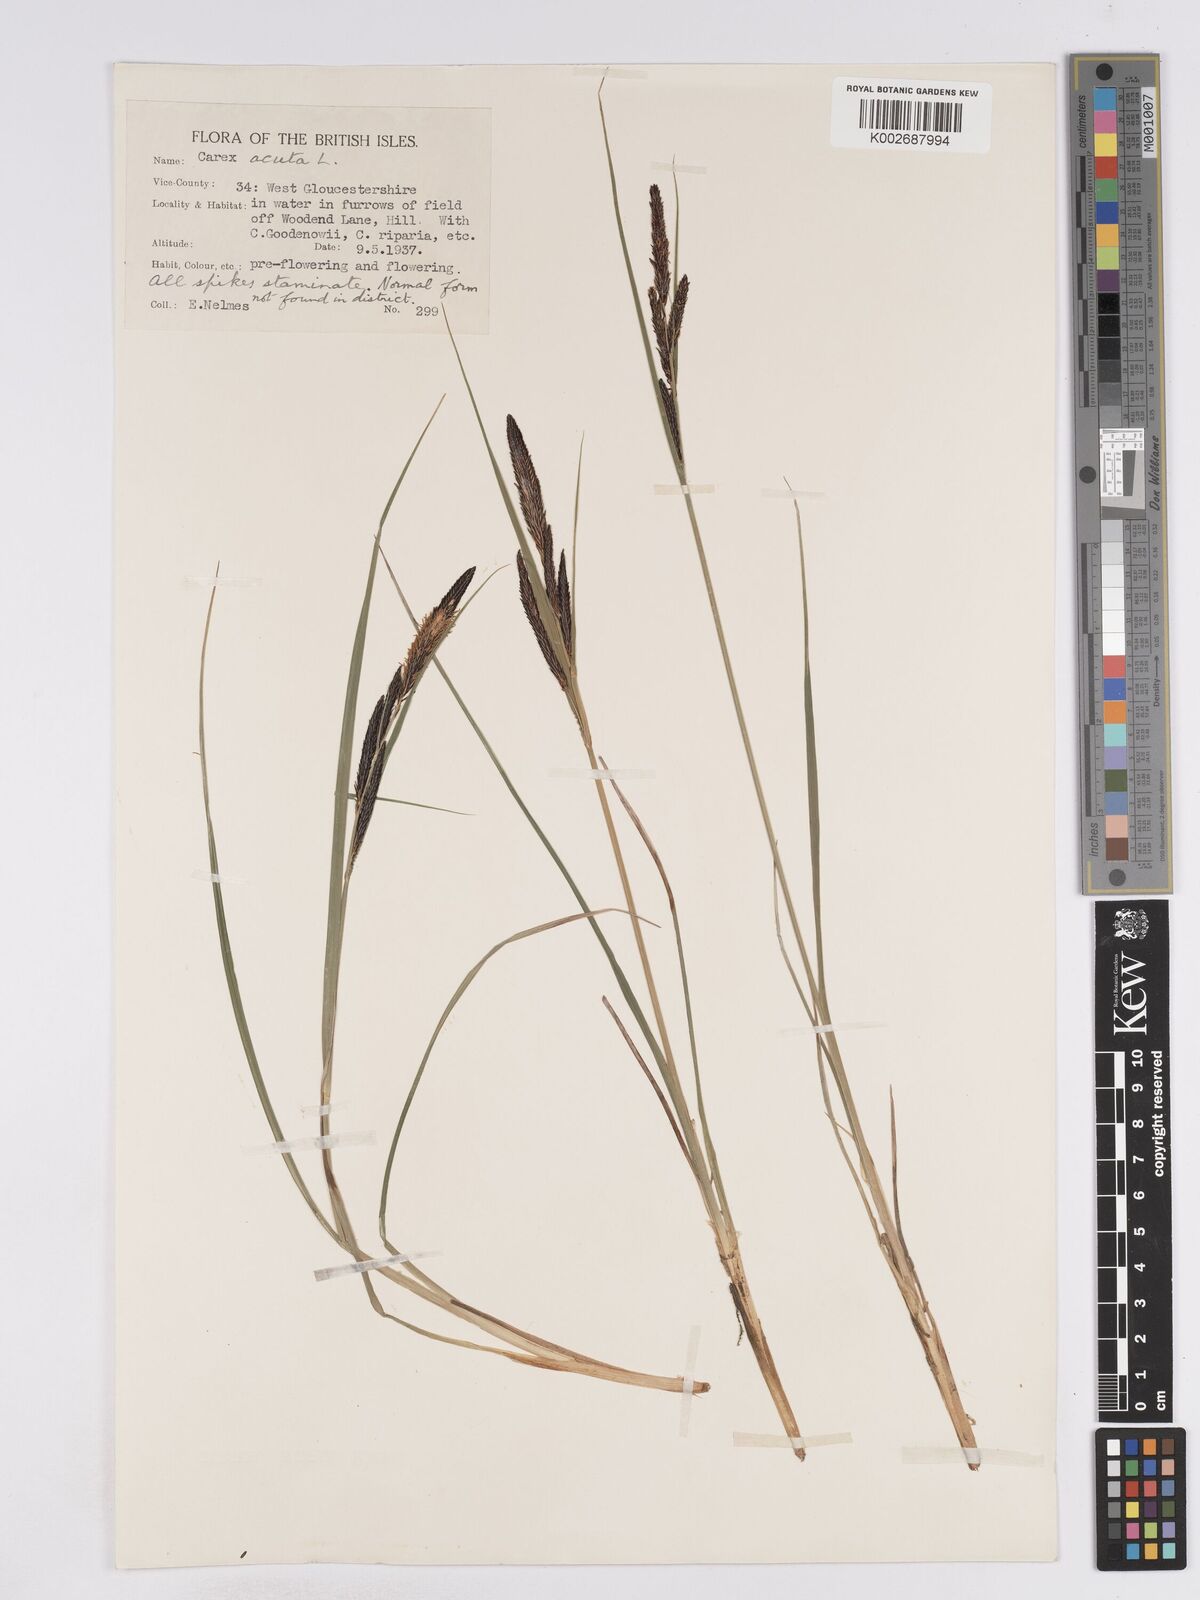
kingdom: Plantae
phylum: Tracheophyta
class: Liliopsida
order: Poales
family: Cyperaceae
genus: Carex
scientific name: Carex acuta
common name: Slender tufted-sedge
